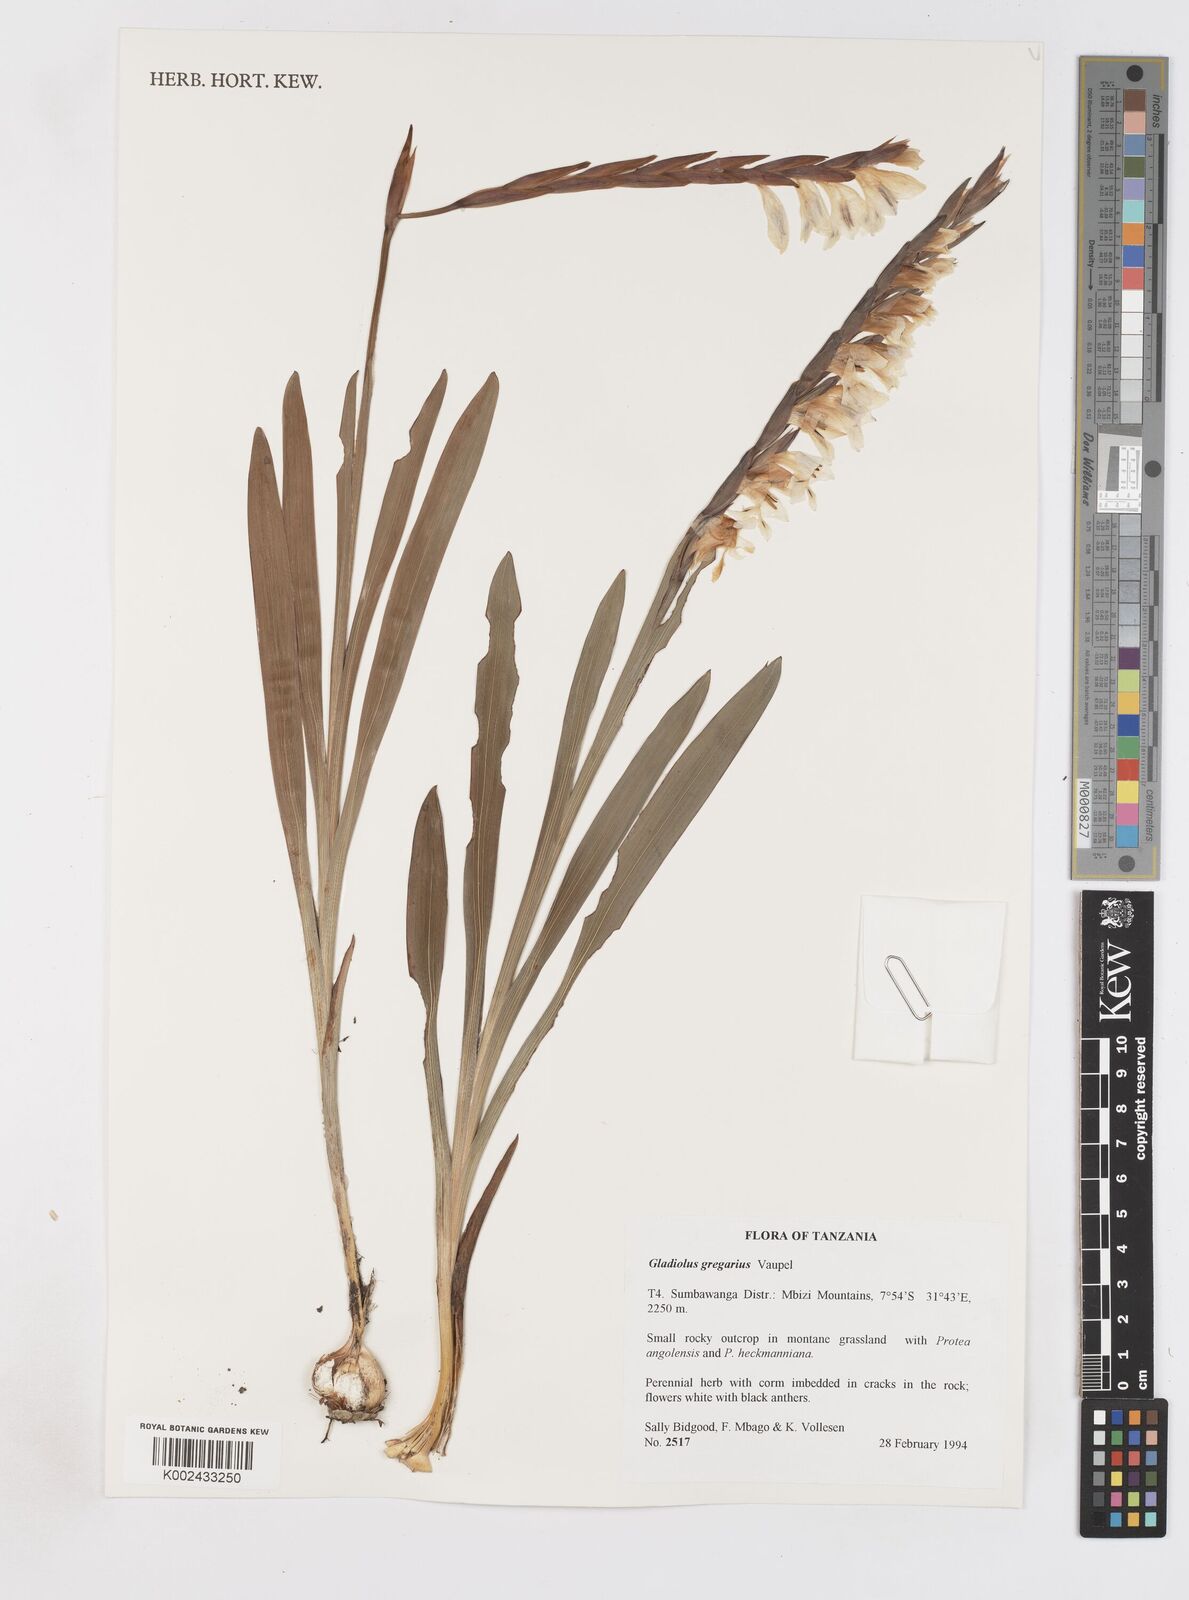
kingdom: Plantae
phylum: Tracheophyta
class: Liliopsida
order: Asparagales
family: Iridaceae
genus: Gladiolus
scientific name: Gladiolus gregarius
